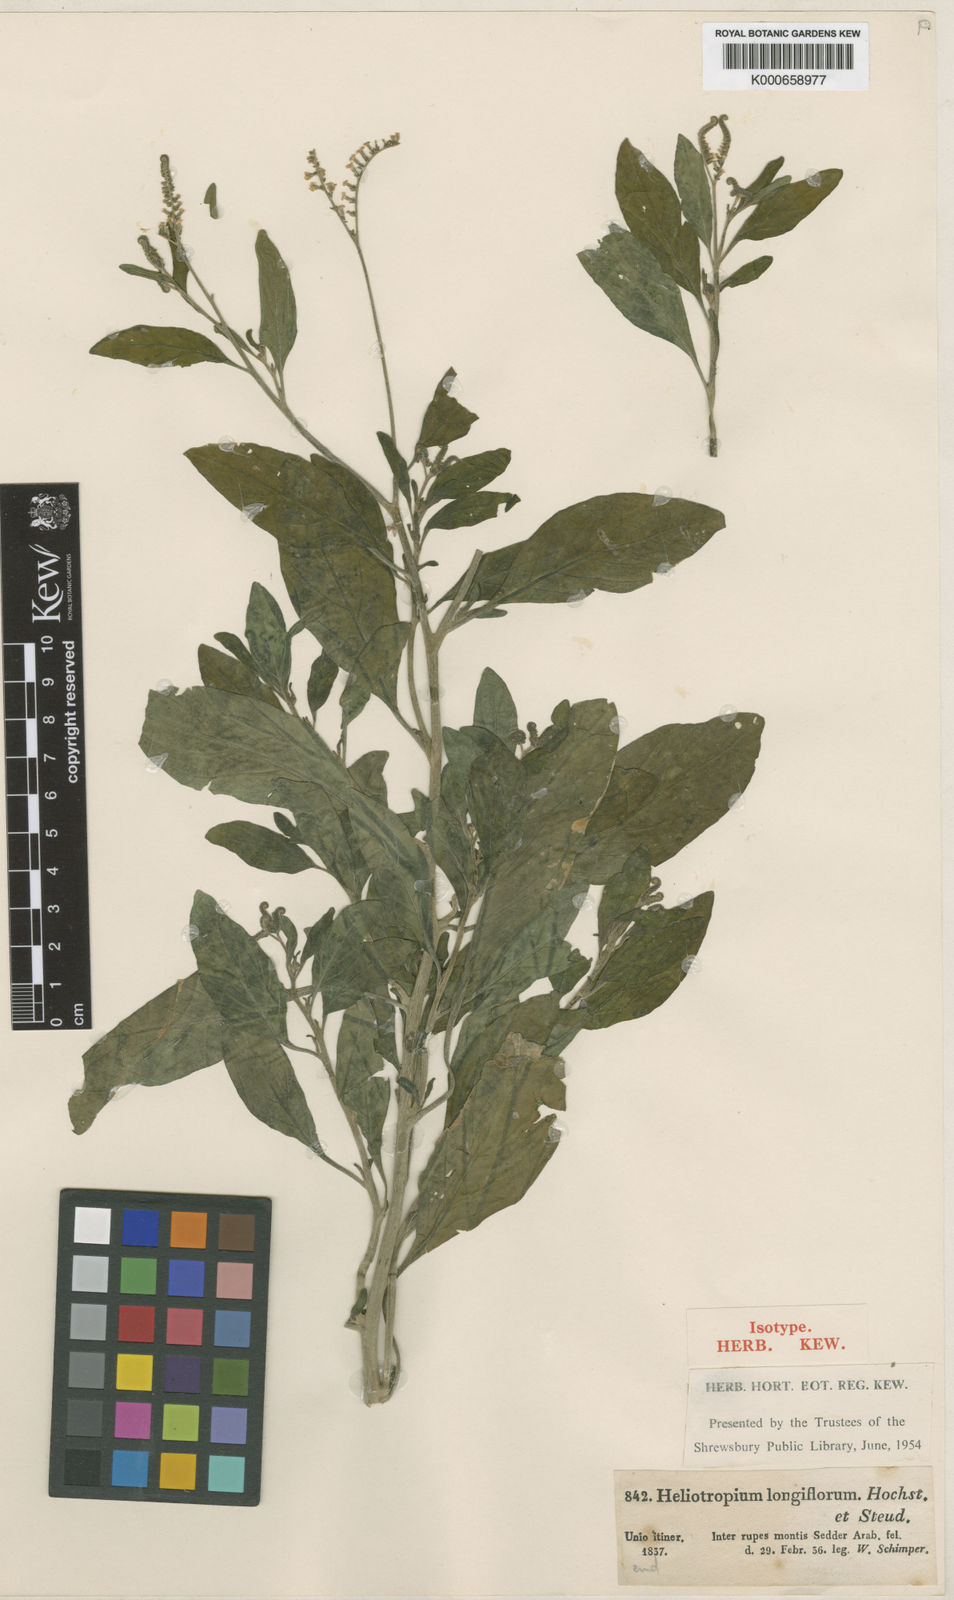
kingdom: Plantae
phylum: Tracheophyta
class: Magnoliopsida
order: Boraginales
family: Heliotropiaceae
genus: Heliotropium
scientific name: Heliotropium longiflorum
